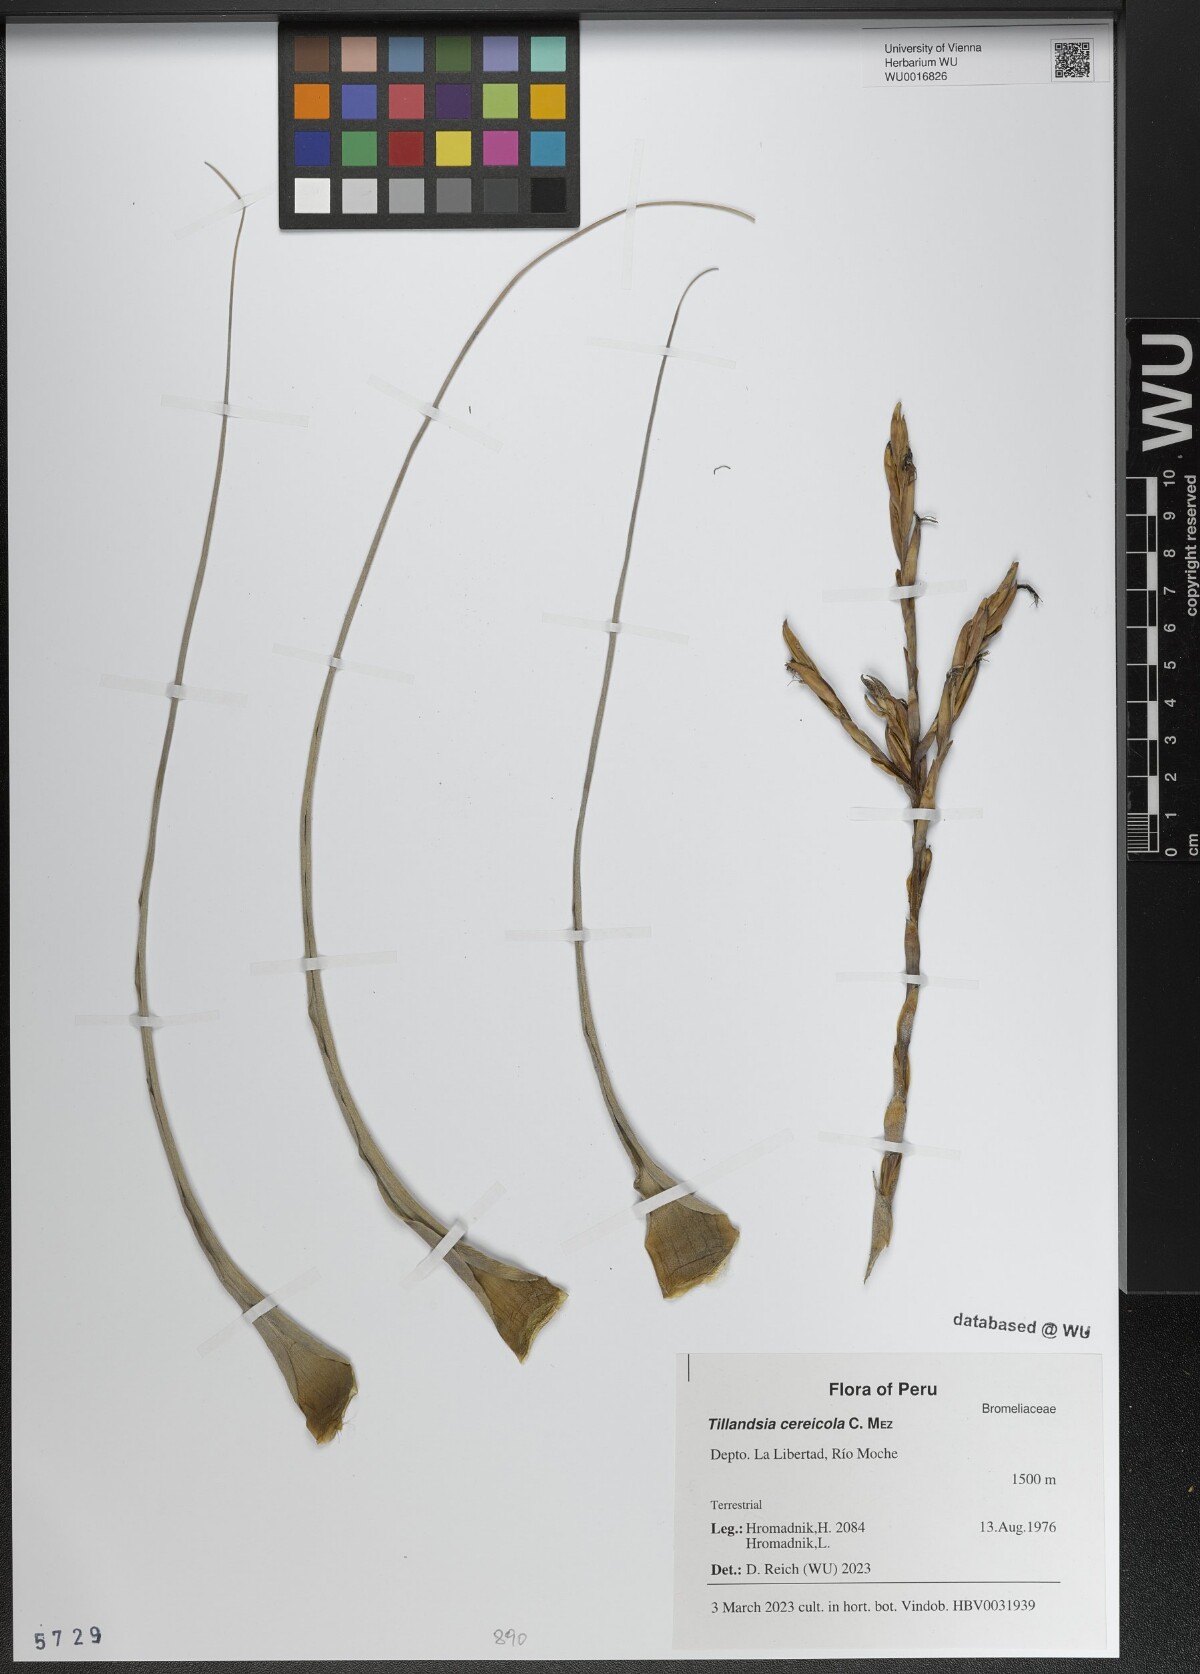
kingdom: Plantae
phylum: Tracheophyta
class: Liliopsida
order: Poales
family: Bromeliaceae
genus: Vriesea
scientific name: Vriesea cereicola
